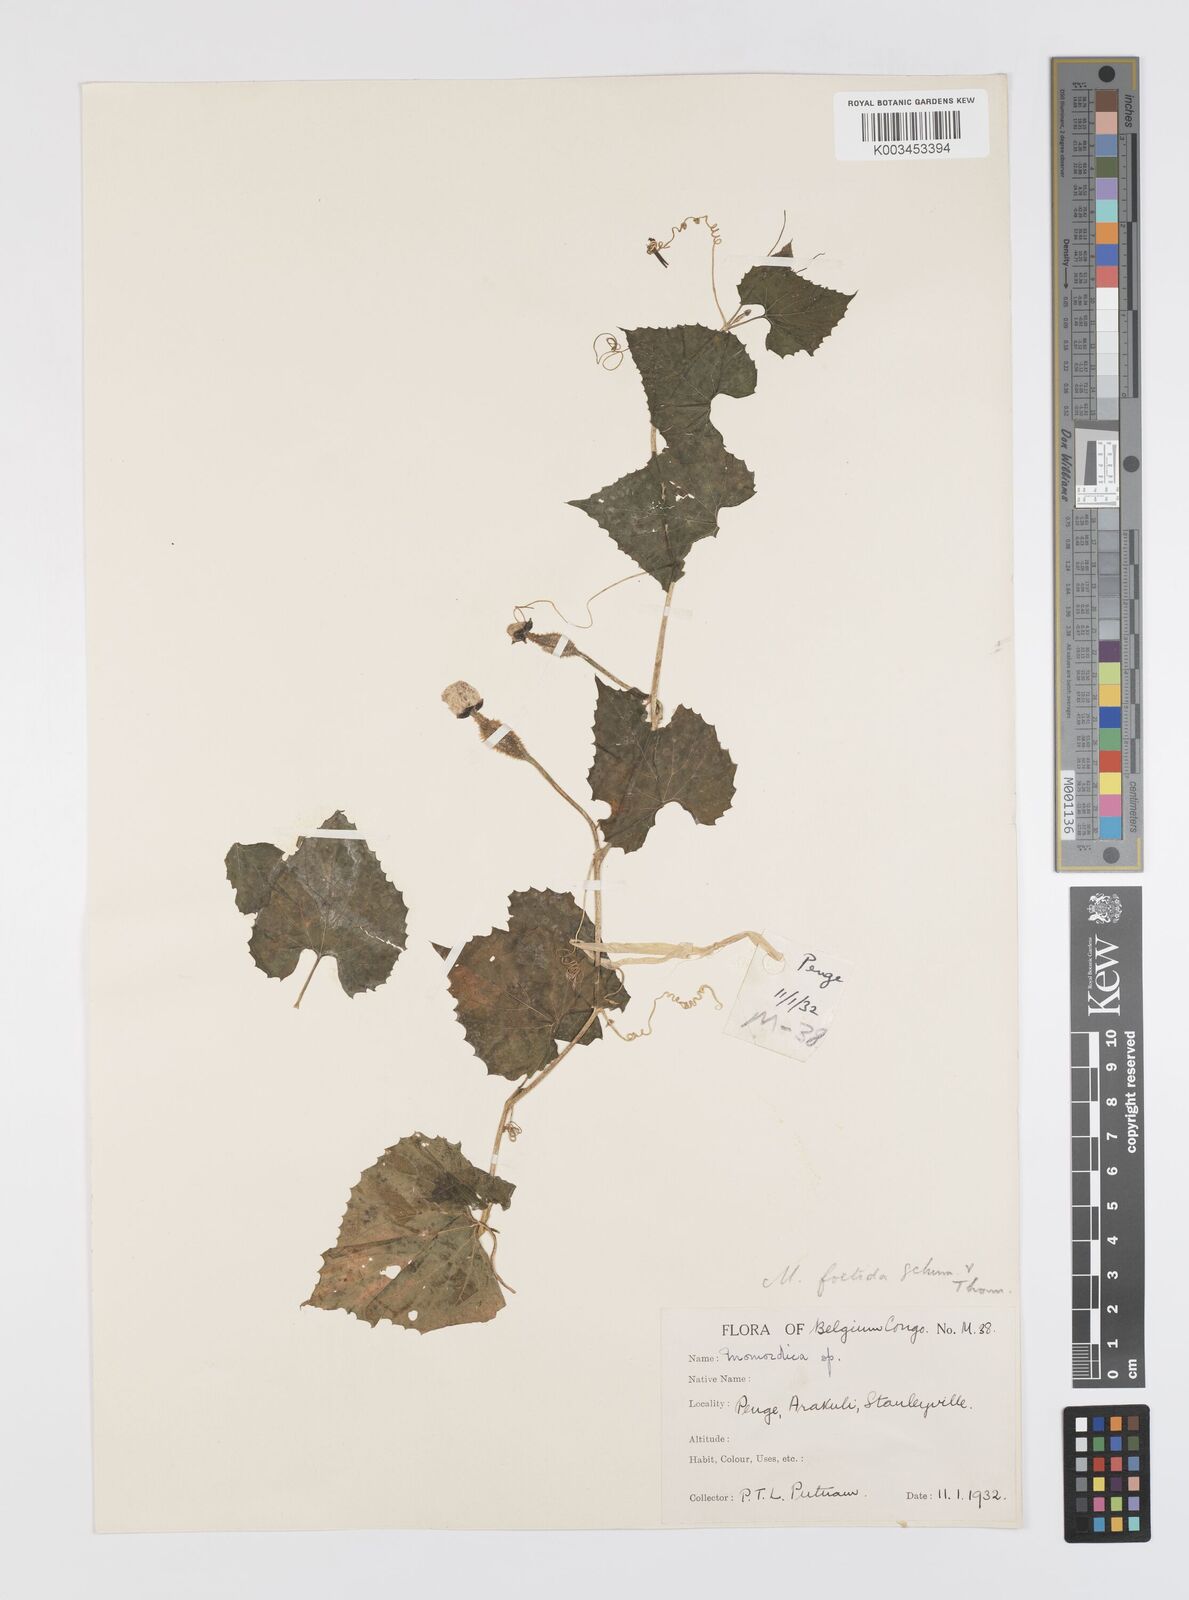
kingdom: Plantae
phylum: Tracheophyta
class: Magnoliopsida
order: Cucurbitales
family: Cucurbitaceae
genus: Momordica
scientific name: Momordica foetida
